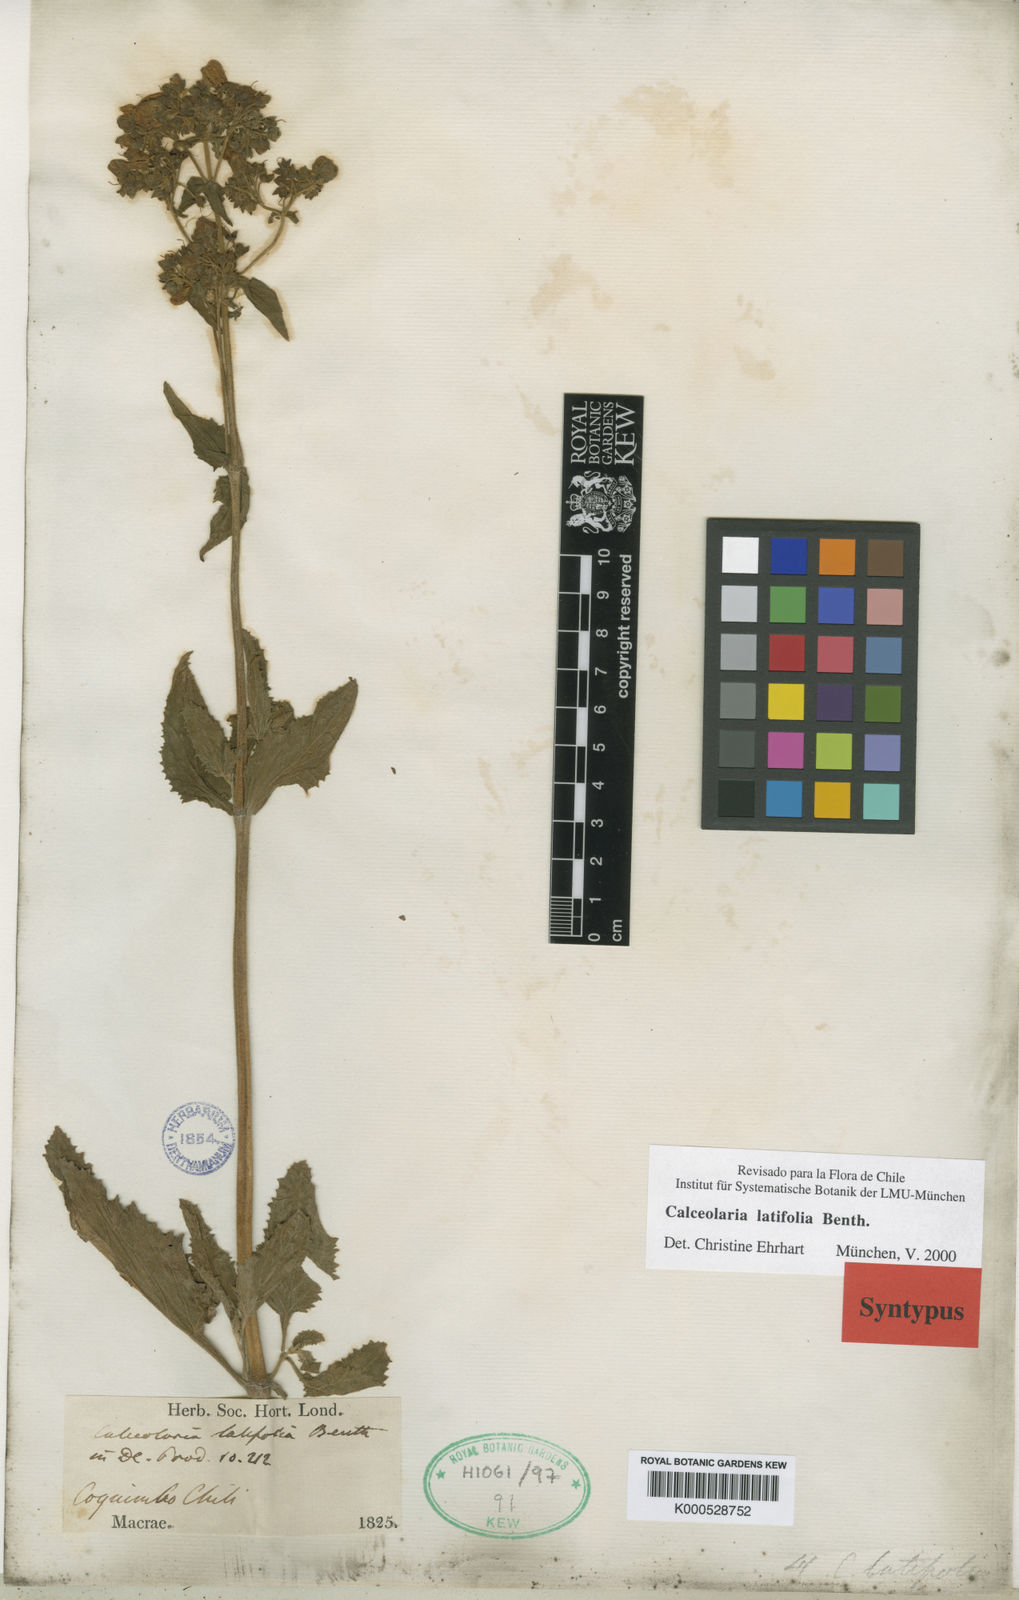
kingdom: Plantae
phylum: Tracheophyta
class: Magnoliopsida
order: Lamiales
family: Calceolariaceae
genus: Calceolaria
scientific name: Calceolaria latifolia
